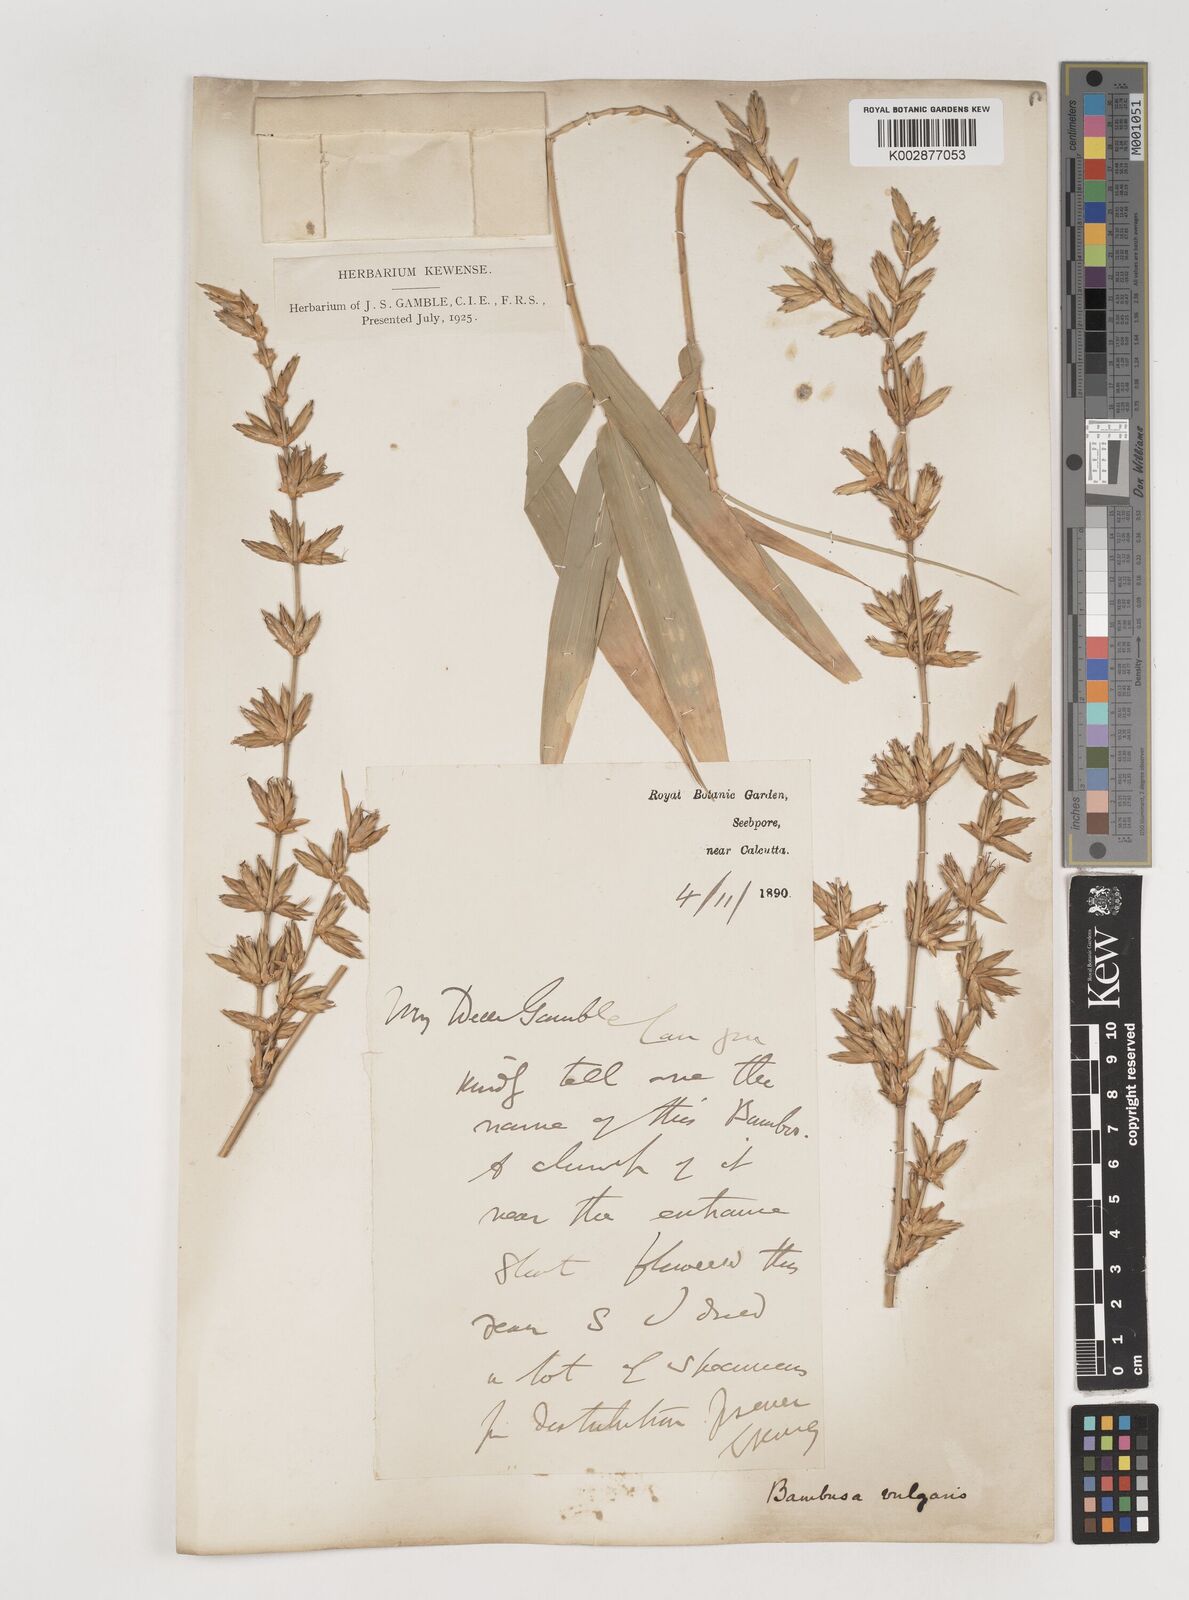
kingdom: Plantae
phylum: Tracheophyta
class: Liliopsida
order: Poales
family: Poaceae
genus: Bambusa
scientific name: Bambusa vulgaris
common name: Common bamboo
